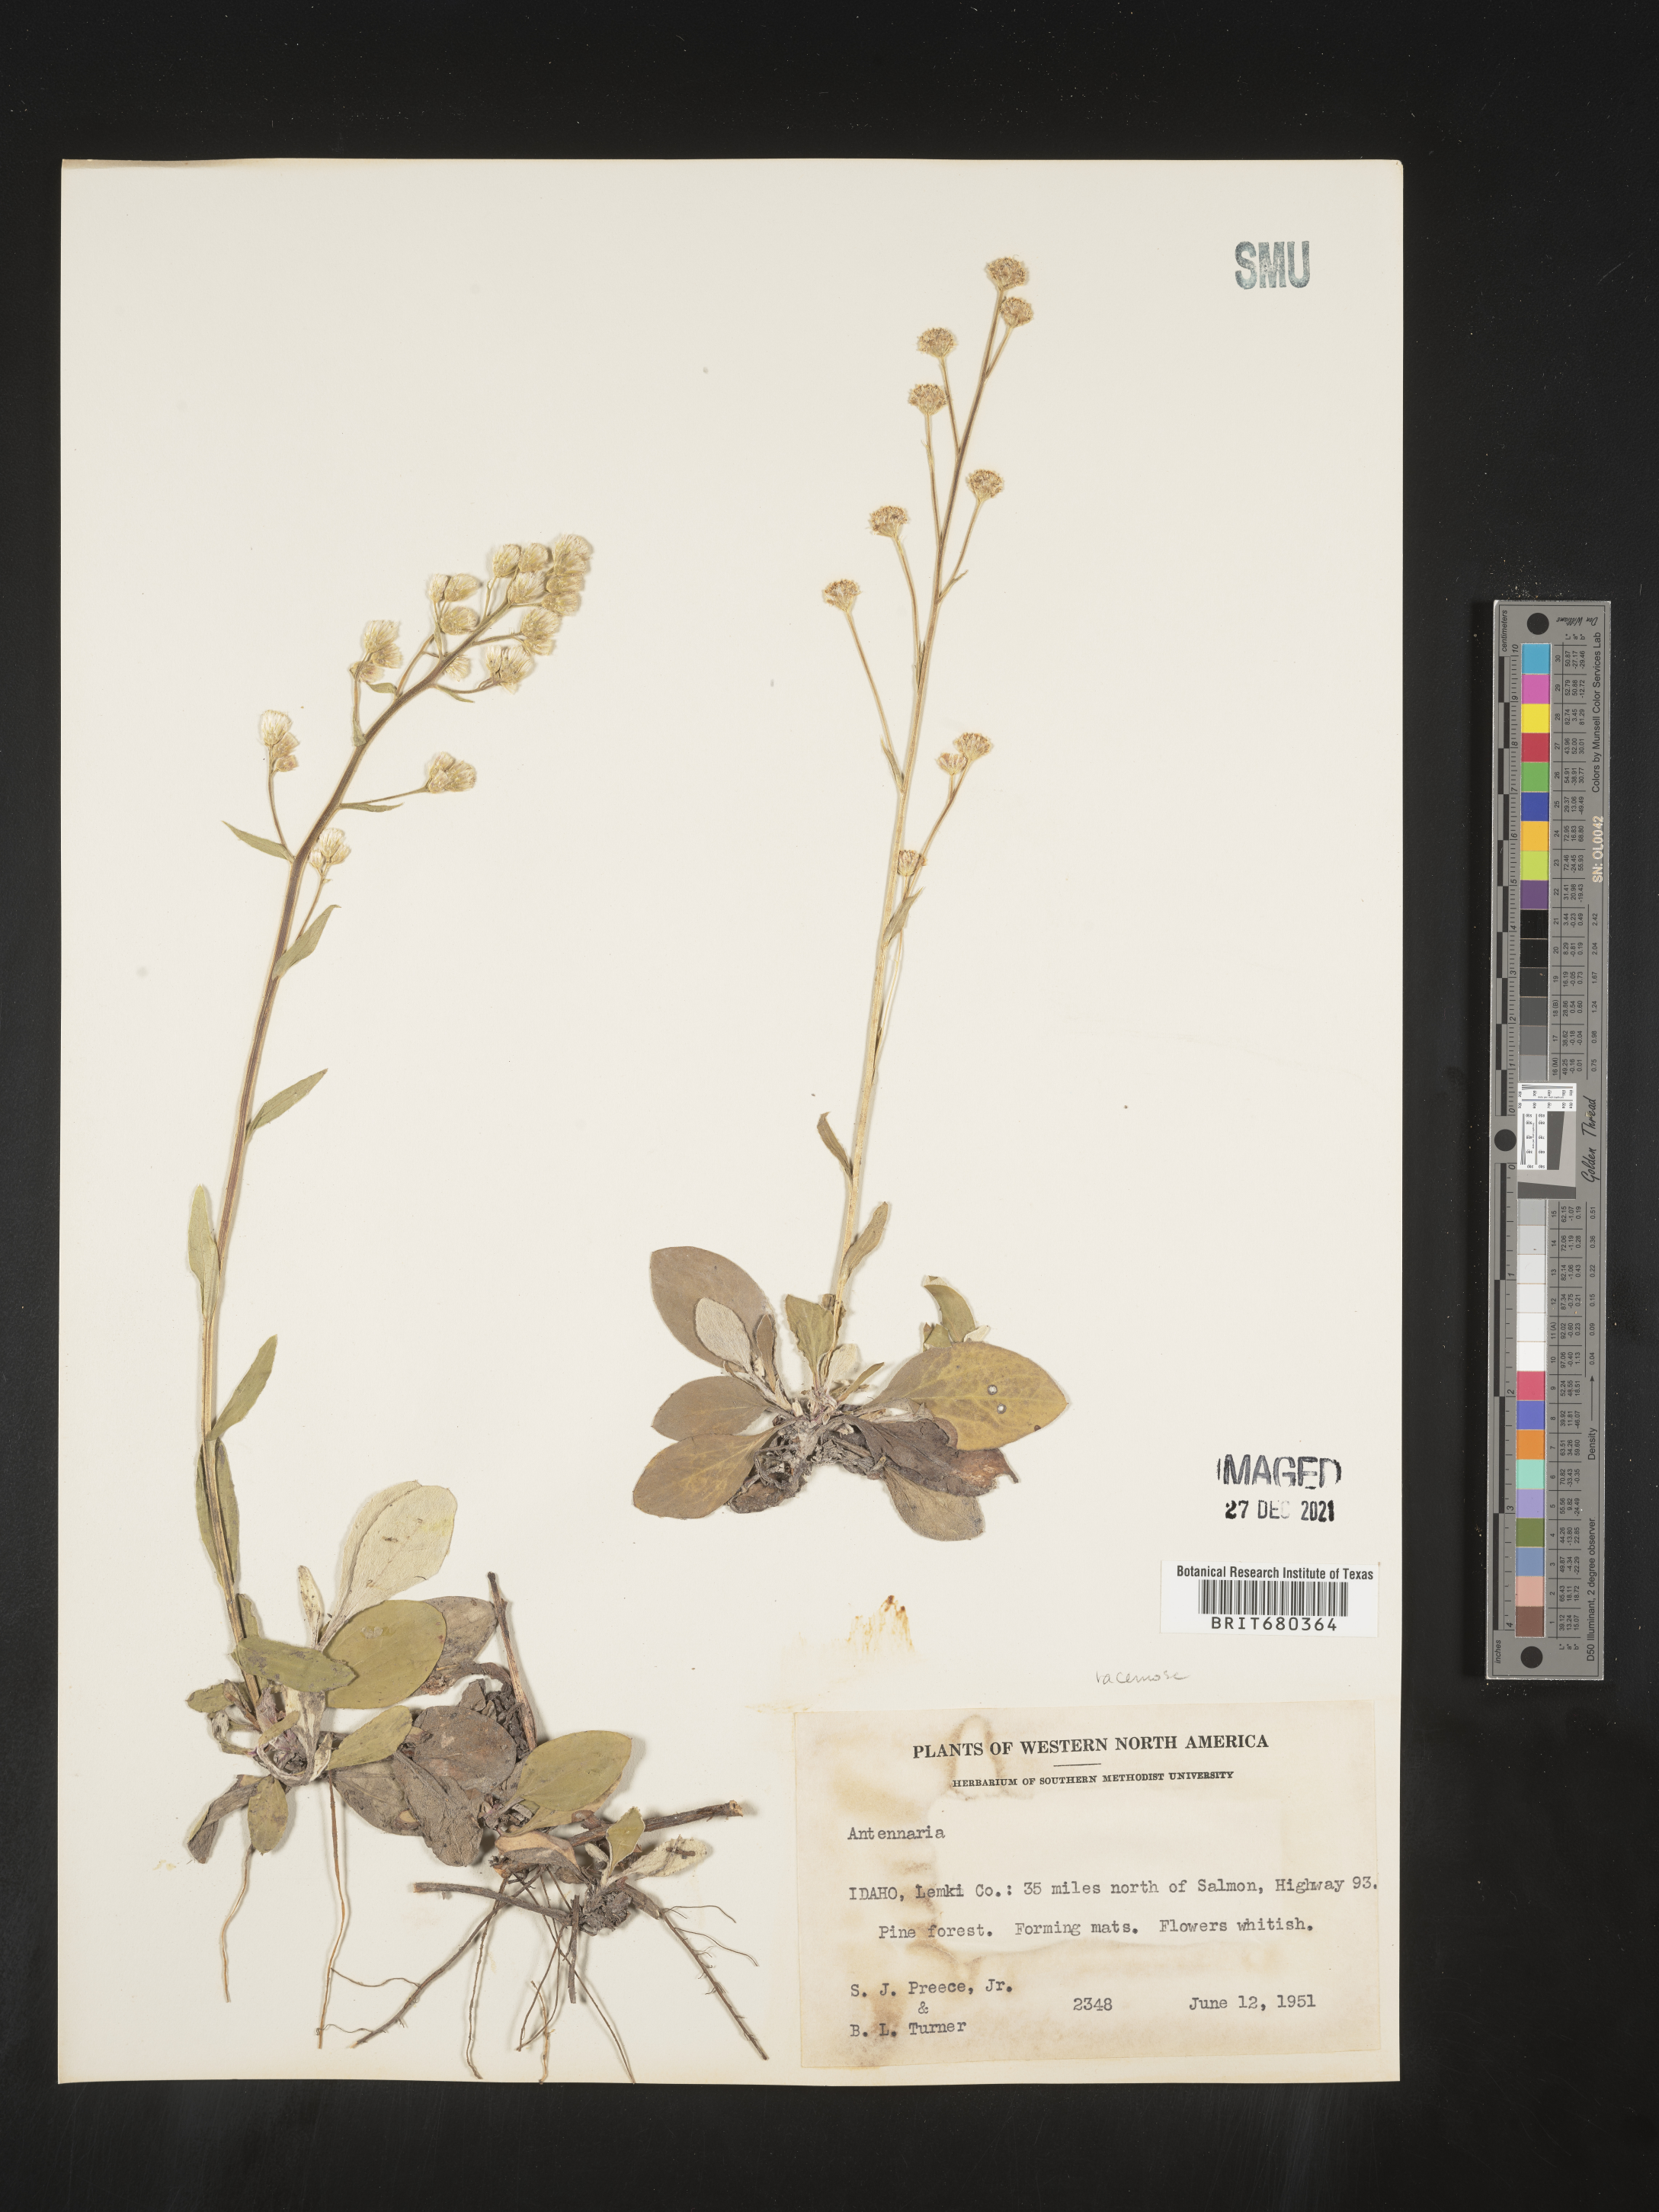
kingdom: Plantae
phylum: Tracheophyta
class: Magnoliopsida
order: Asterales
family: Asteraceae
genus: Antennaria
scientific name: Antennaria
